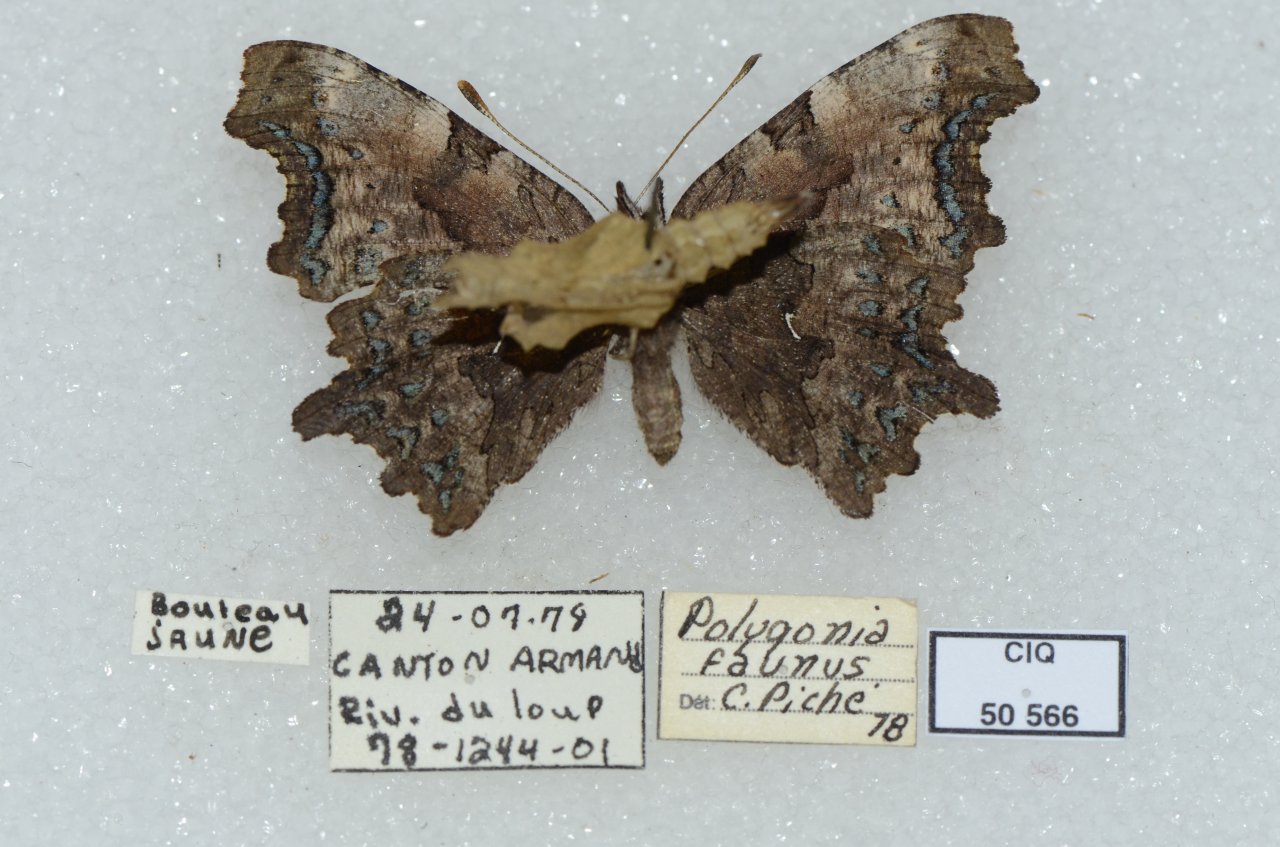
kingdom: Animalia
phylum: Arthropoda
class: Insecta
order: Lepidoptera
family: Nymphalidae
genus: Polygonia
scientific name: Polygonia faunus
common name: Green Comma
